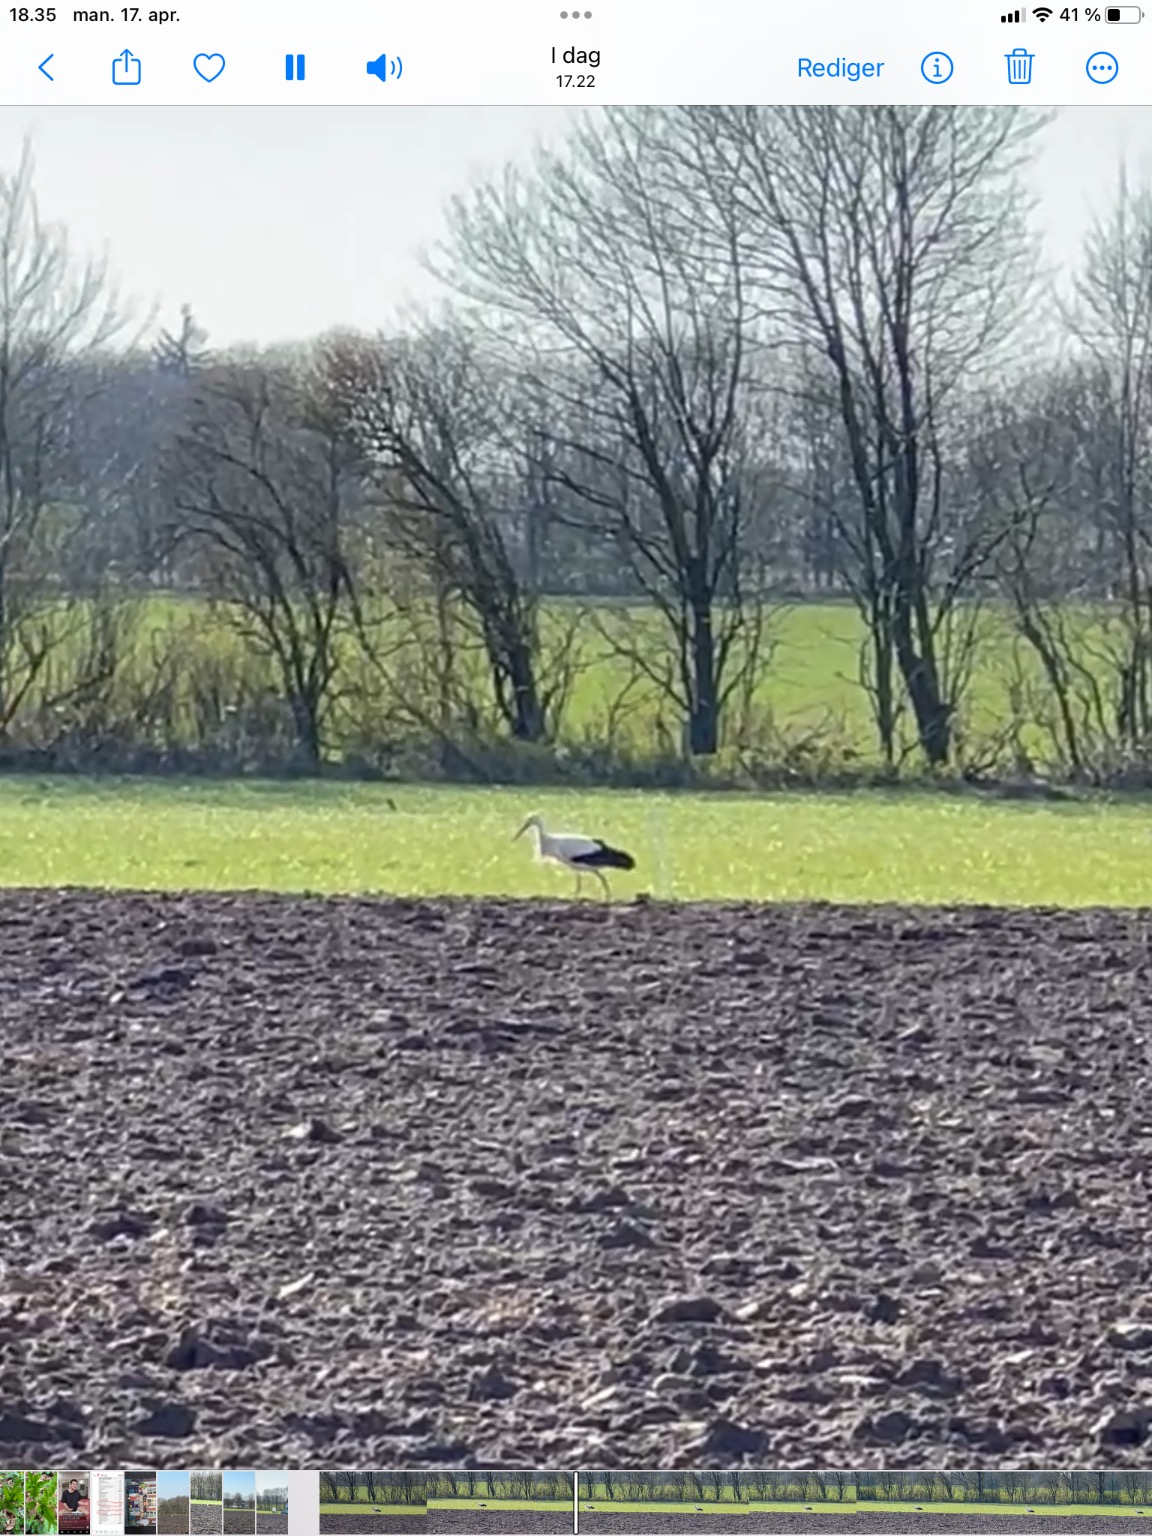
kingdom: Animalia
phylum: Chordata
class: Aves
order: Ciconiiformes
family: Ciconiidae
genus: Ciconia
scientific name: Ciconia ciconia
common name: Hvid stork
